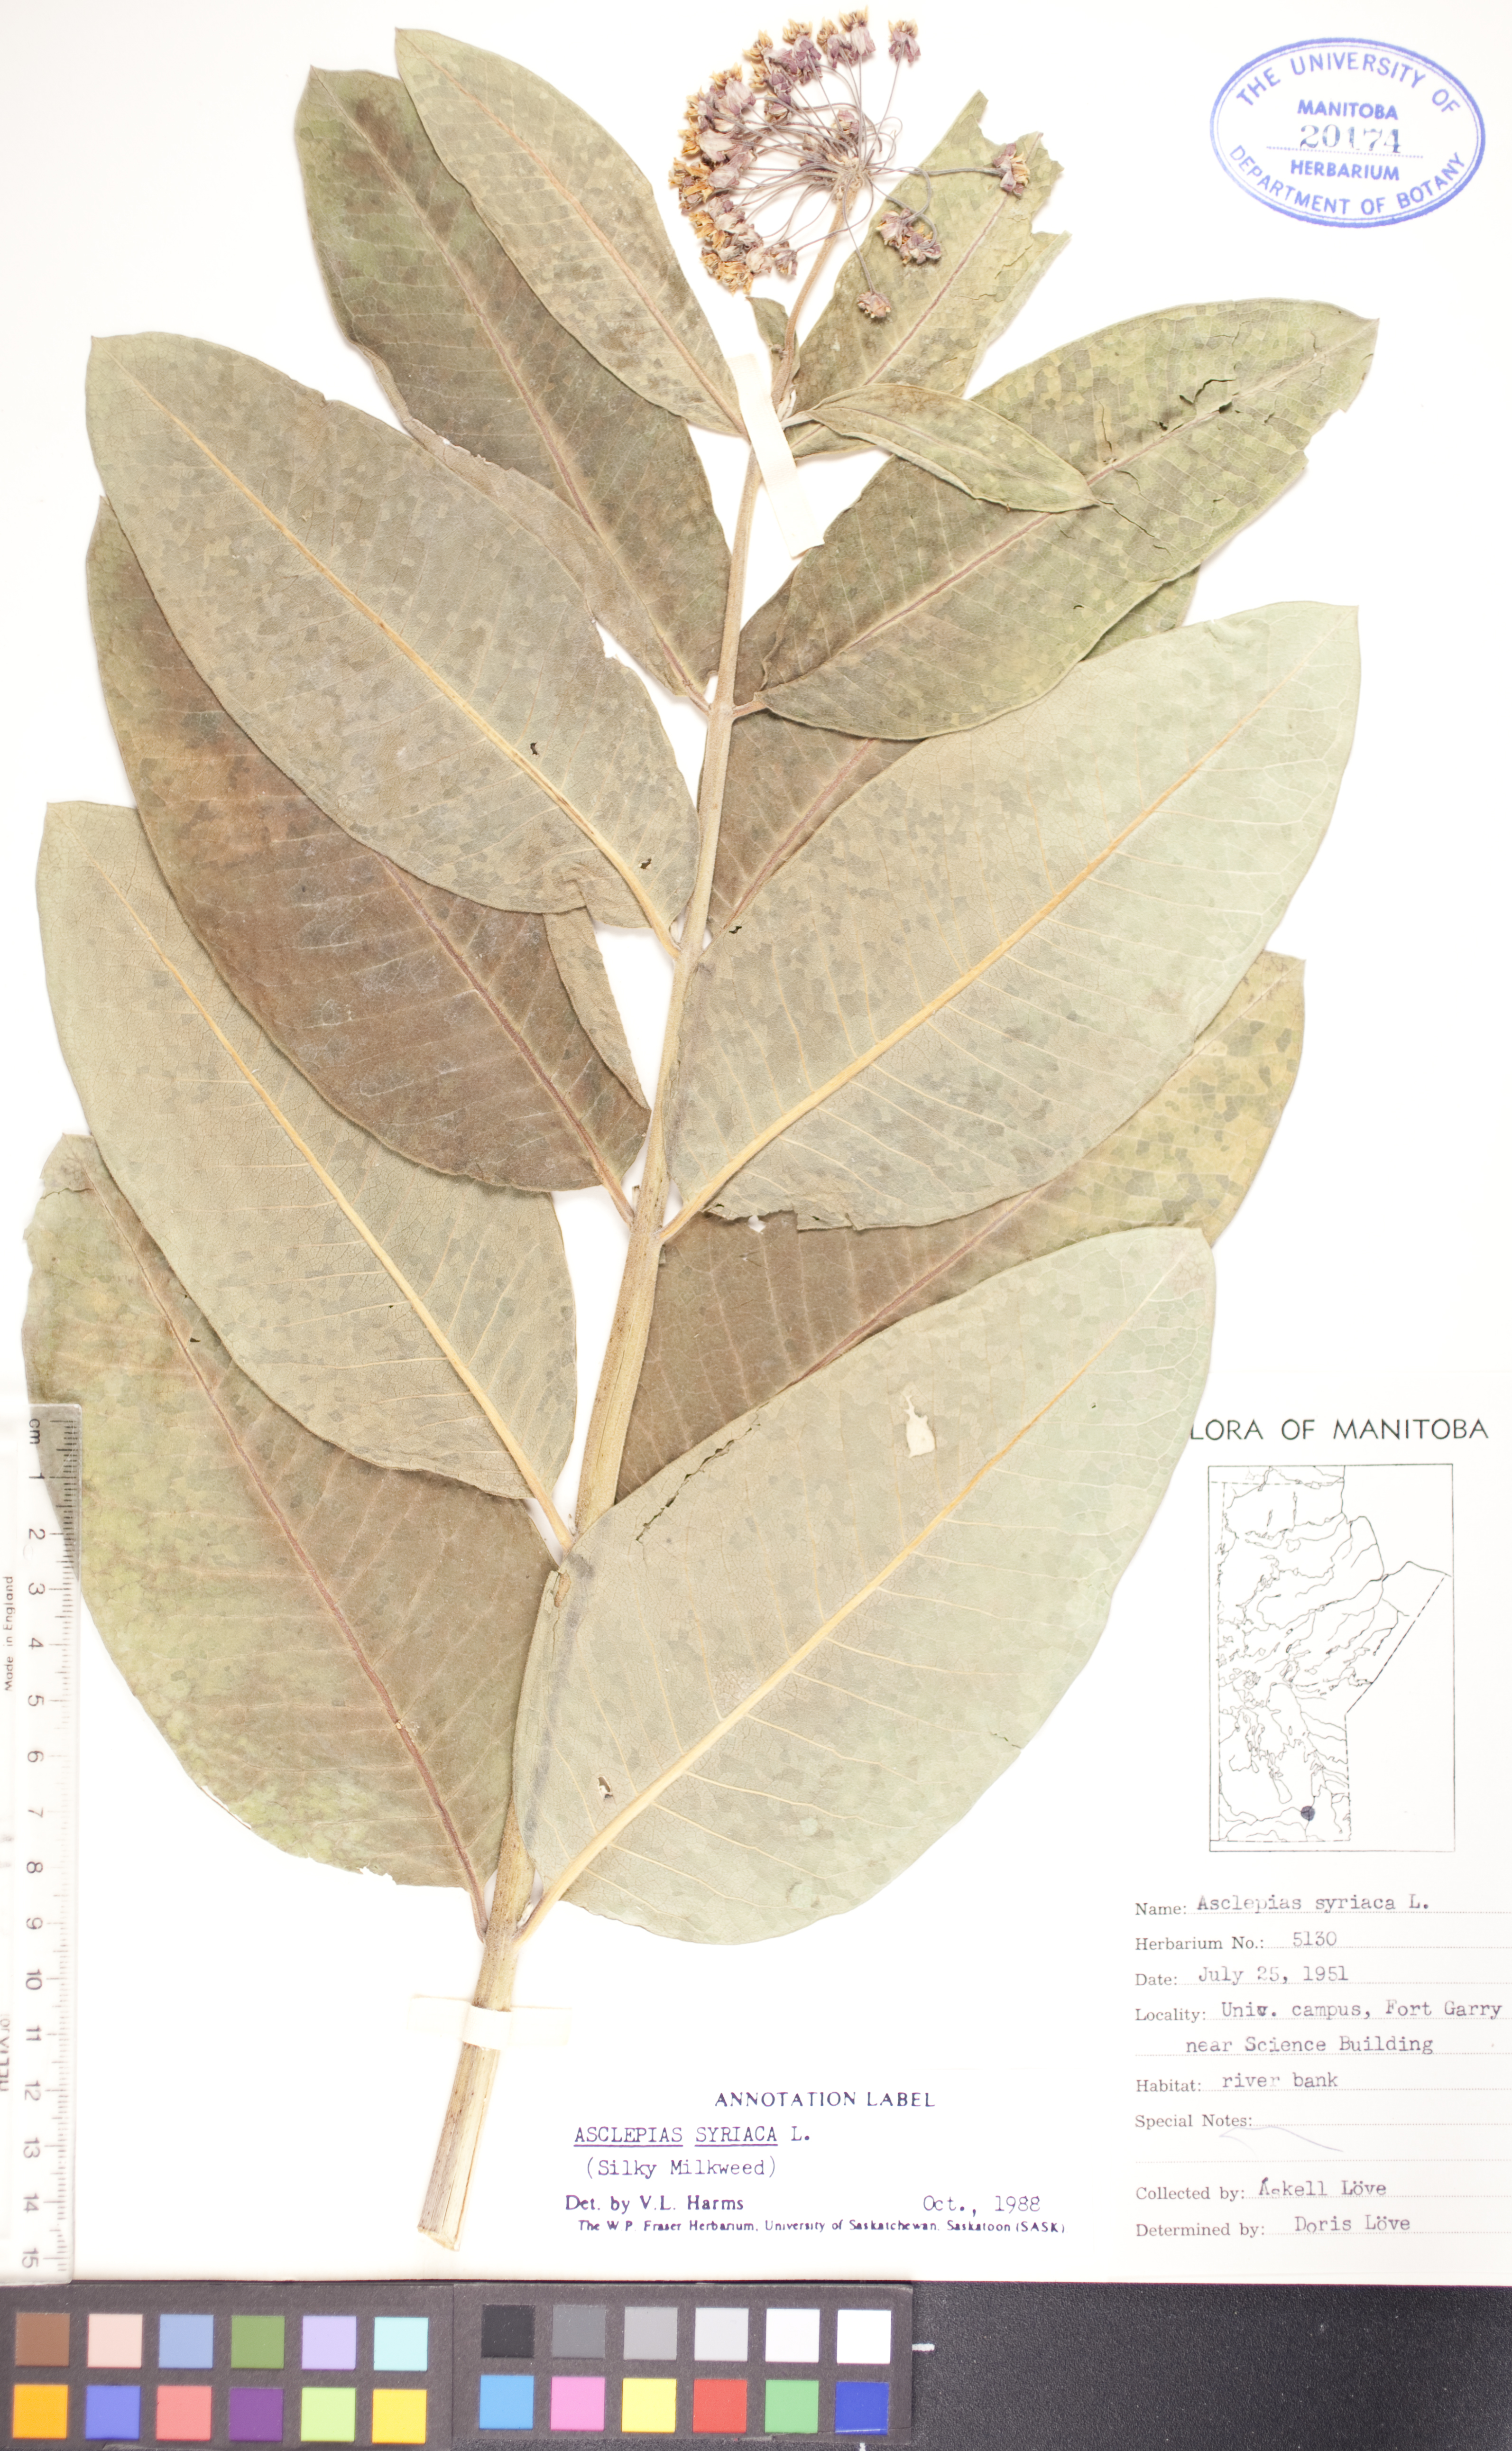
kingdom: Plantae
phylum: Tracheophyta
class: Magnoliopsida
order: Gentianales
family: Apocynaceae
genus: Asclepias
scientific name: Asclepias syriaca
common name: Common milkweed
